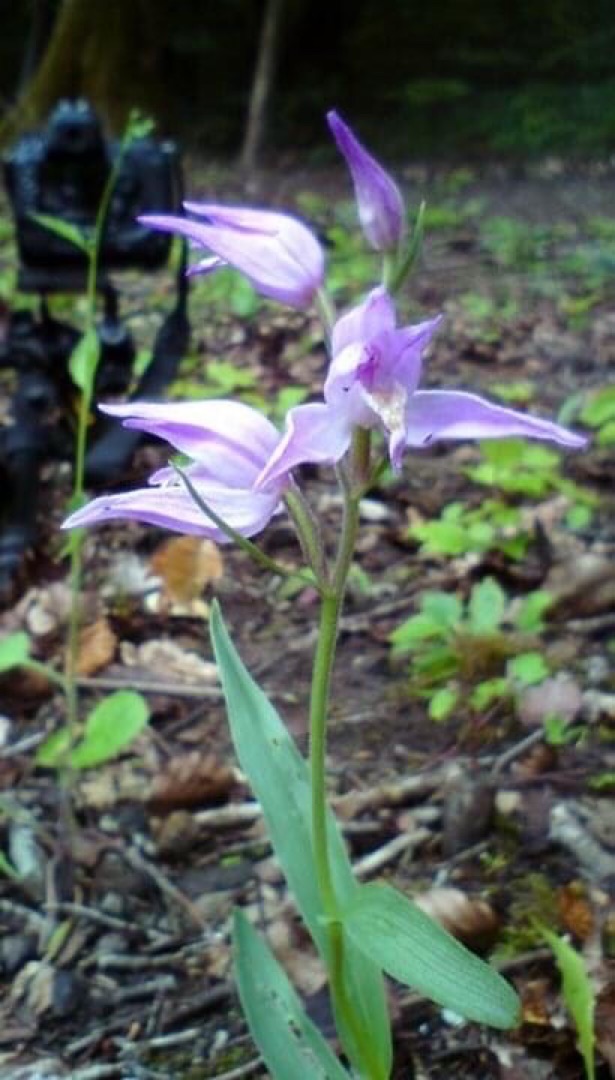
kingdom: Plantae
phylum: Tracheophyta
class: Liliopsida
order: Asparagales
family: Orchidaceae
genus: Cephalanthera
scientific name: Cephalanthera rubra
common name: Rød skovlilje
